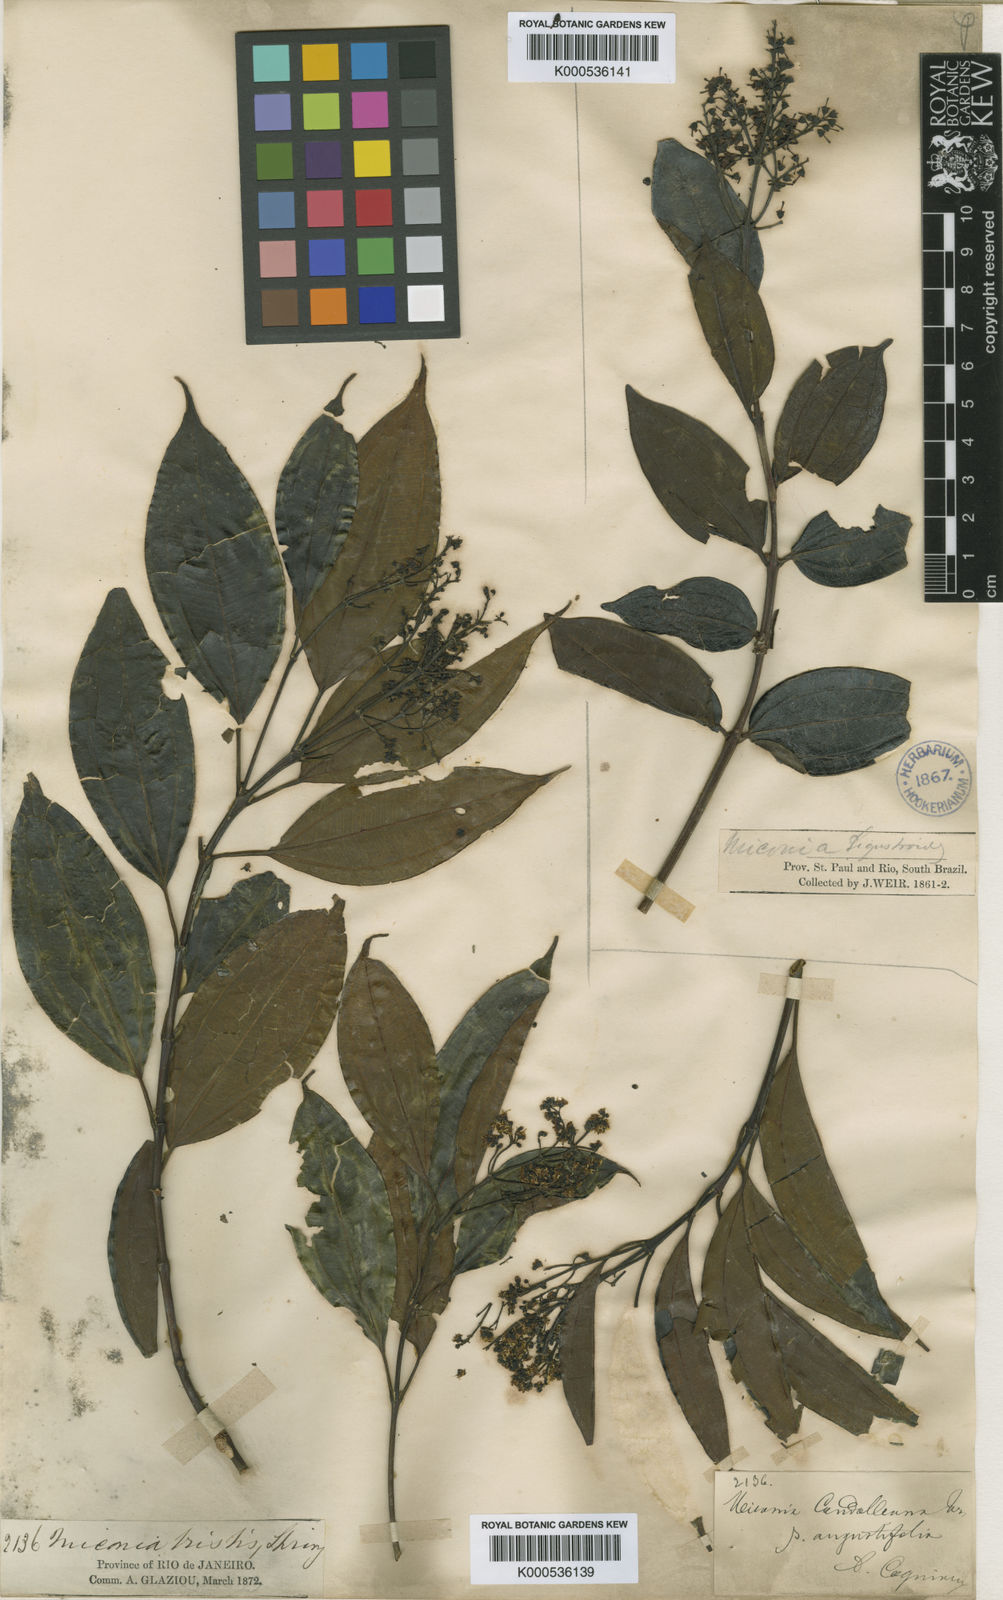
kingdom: Plantae
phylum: Tracheophyta
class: Magnoliopsida
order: Myrtales
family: Melastomataceae
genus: Miconia
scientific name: Miconia cinnamomifolia
